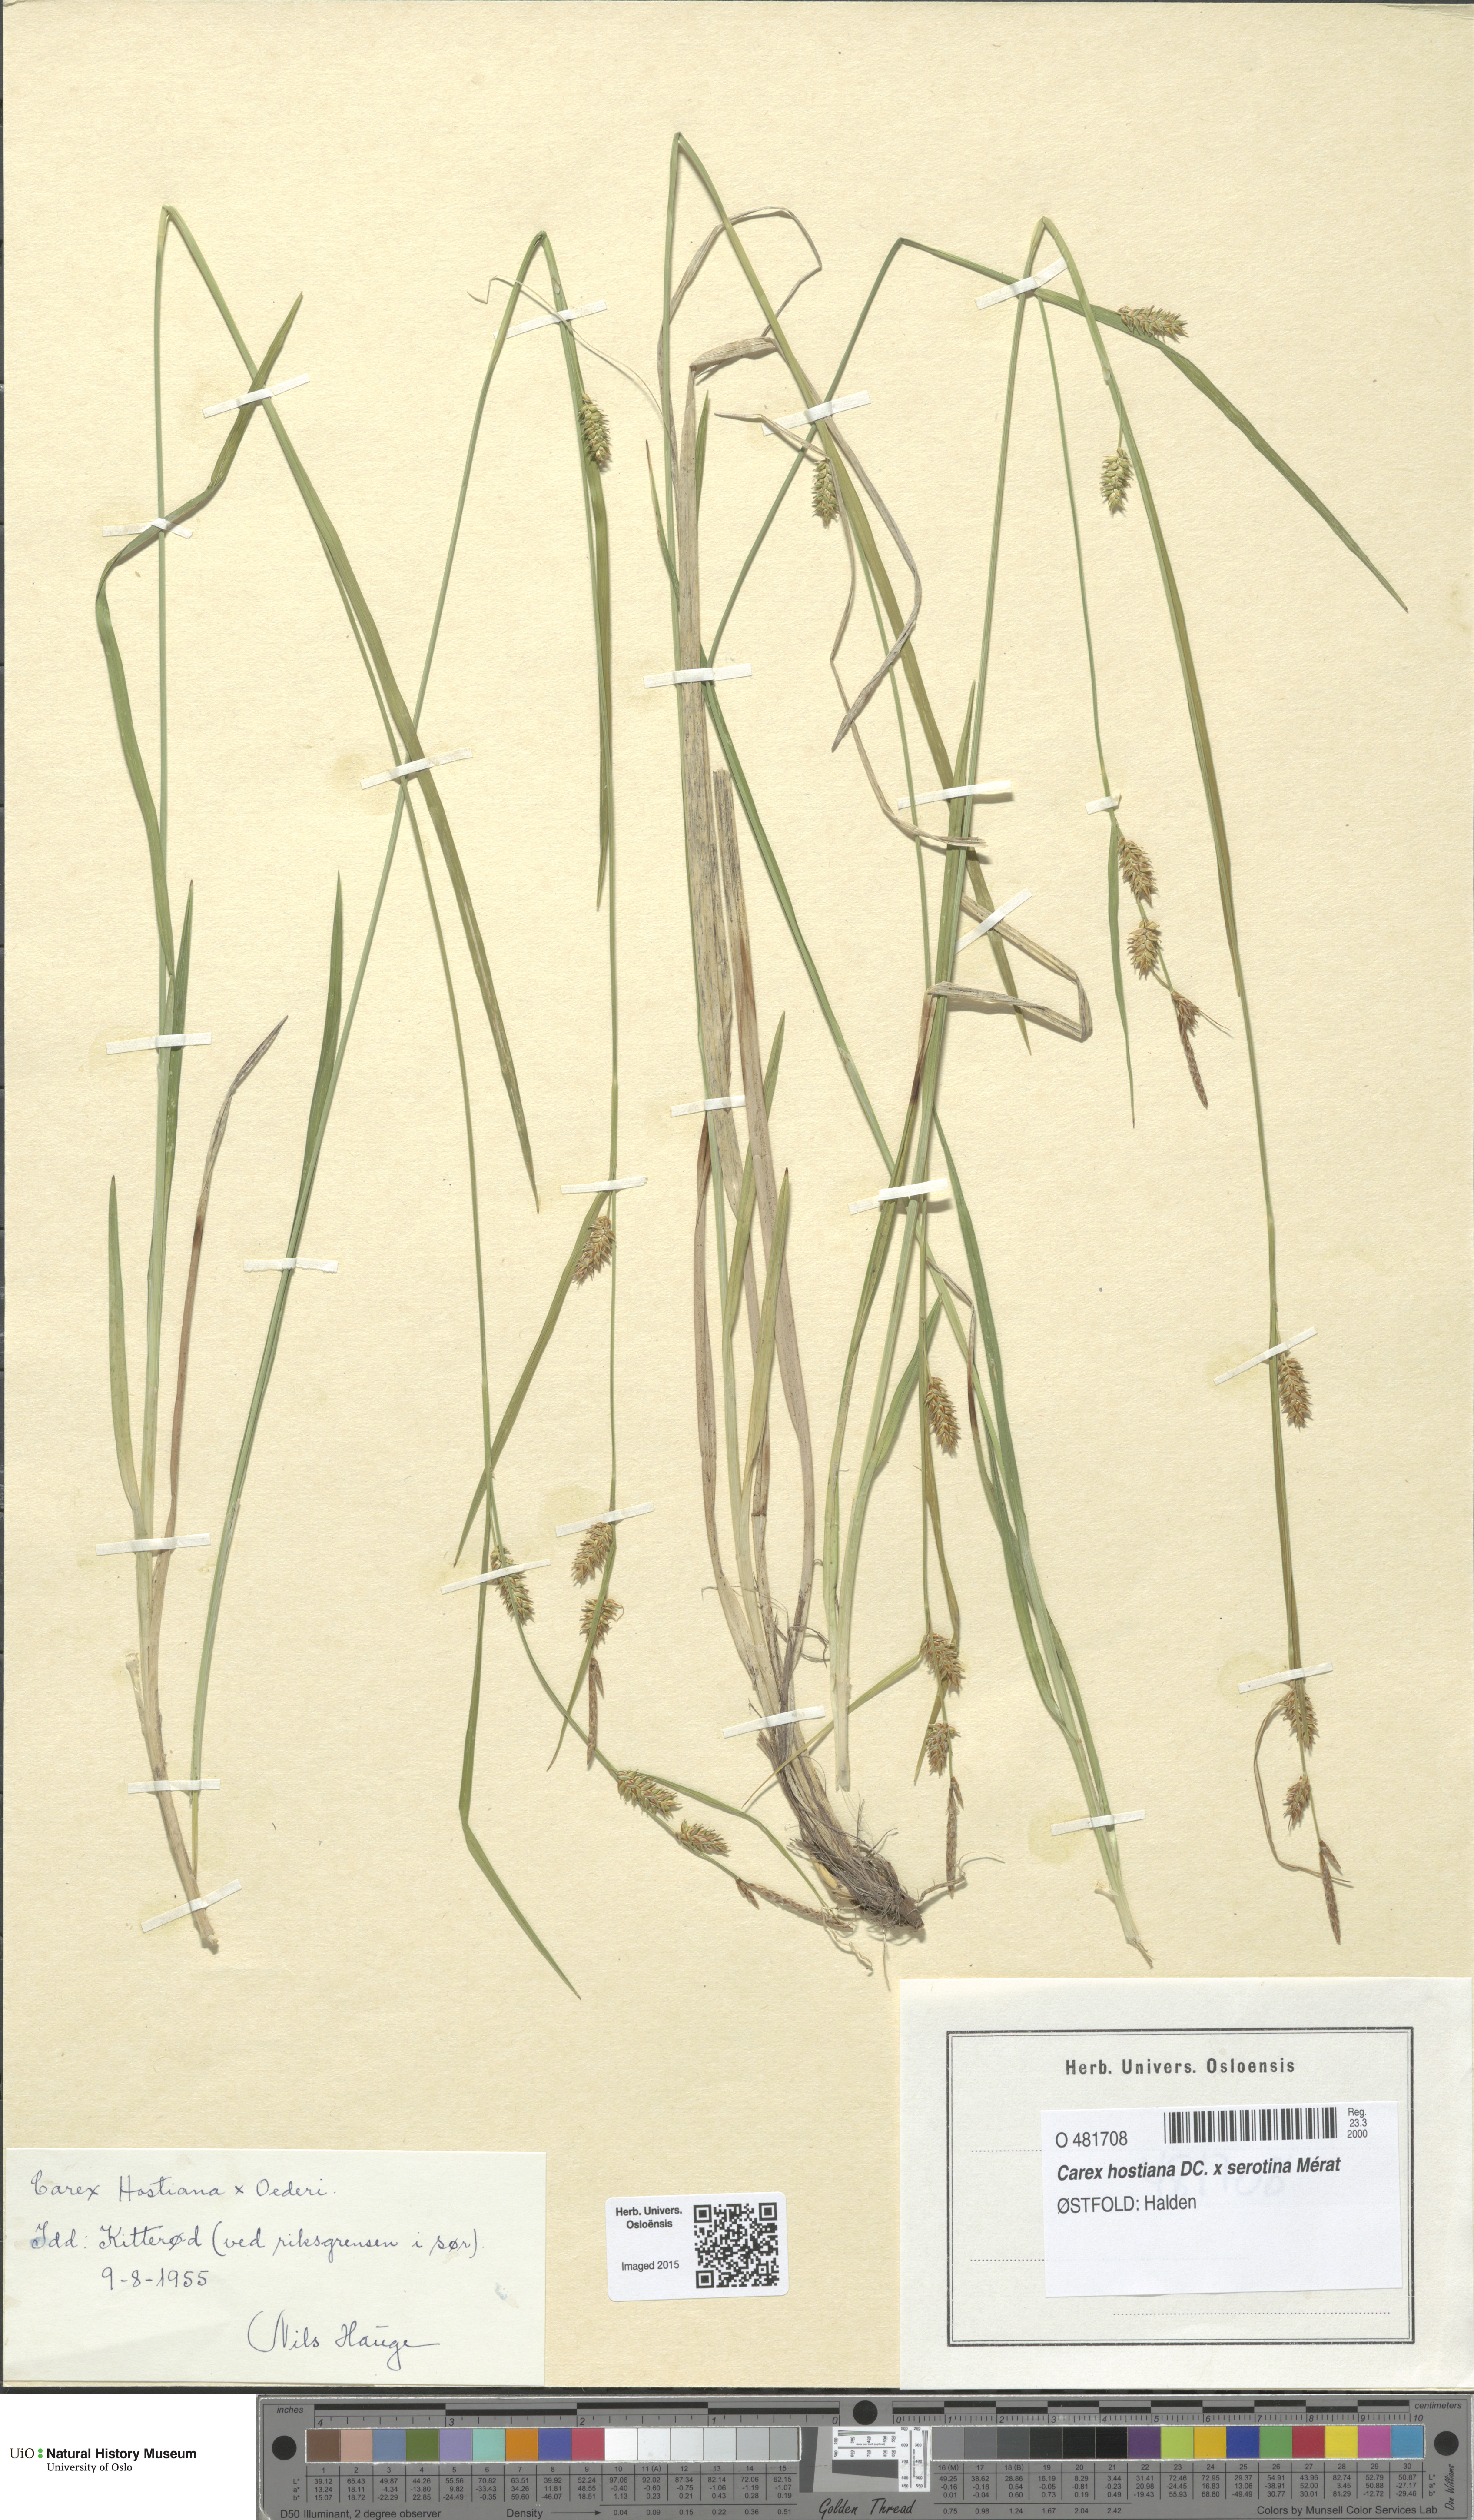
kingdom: Plantae
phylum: Tracheophyta
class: Liliopsida
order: Poales
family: Cyperaceae
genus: Carex
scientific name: Carex
